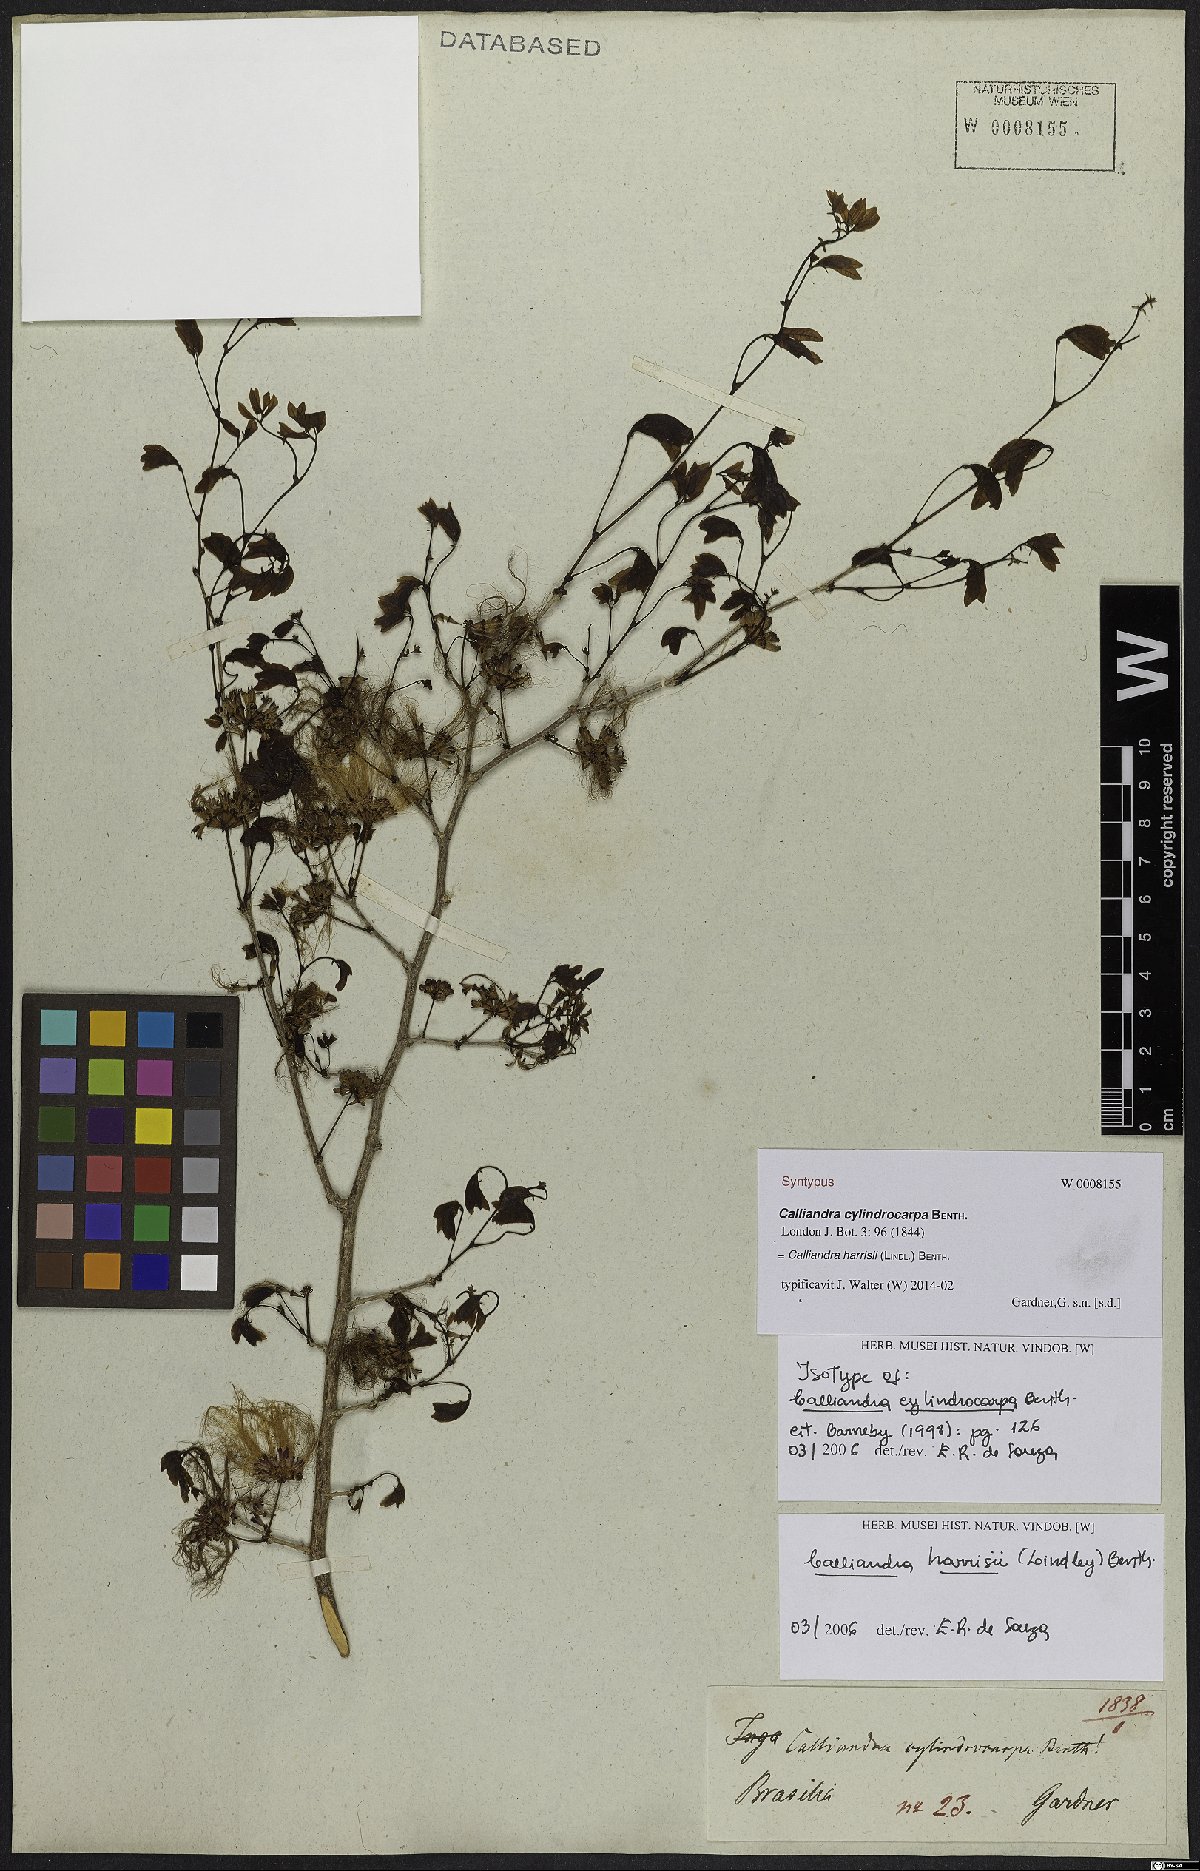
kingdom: Plantae
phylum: Tracheophyta
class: Magnoliopsida
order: Fabales
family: Fabaceae
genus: Calliandra
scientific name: Calliandra harrisii
